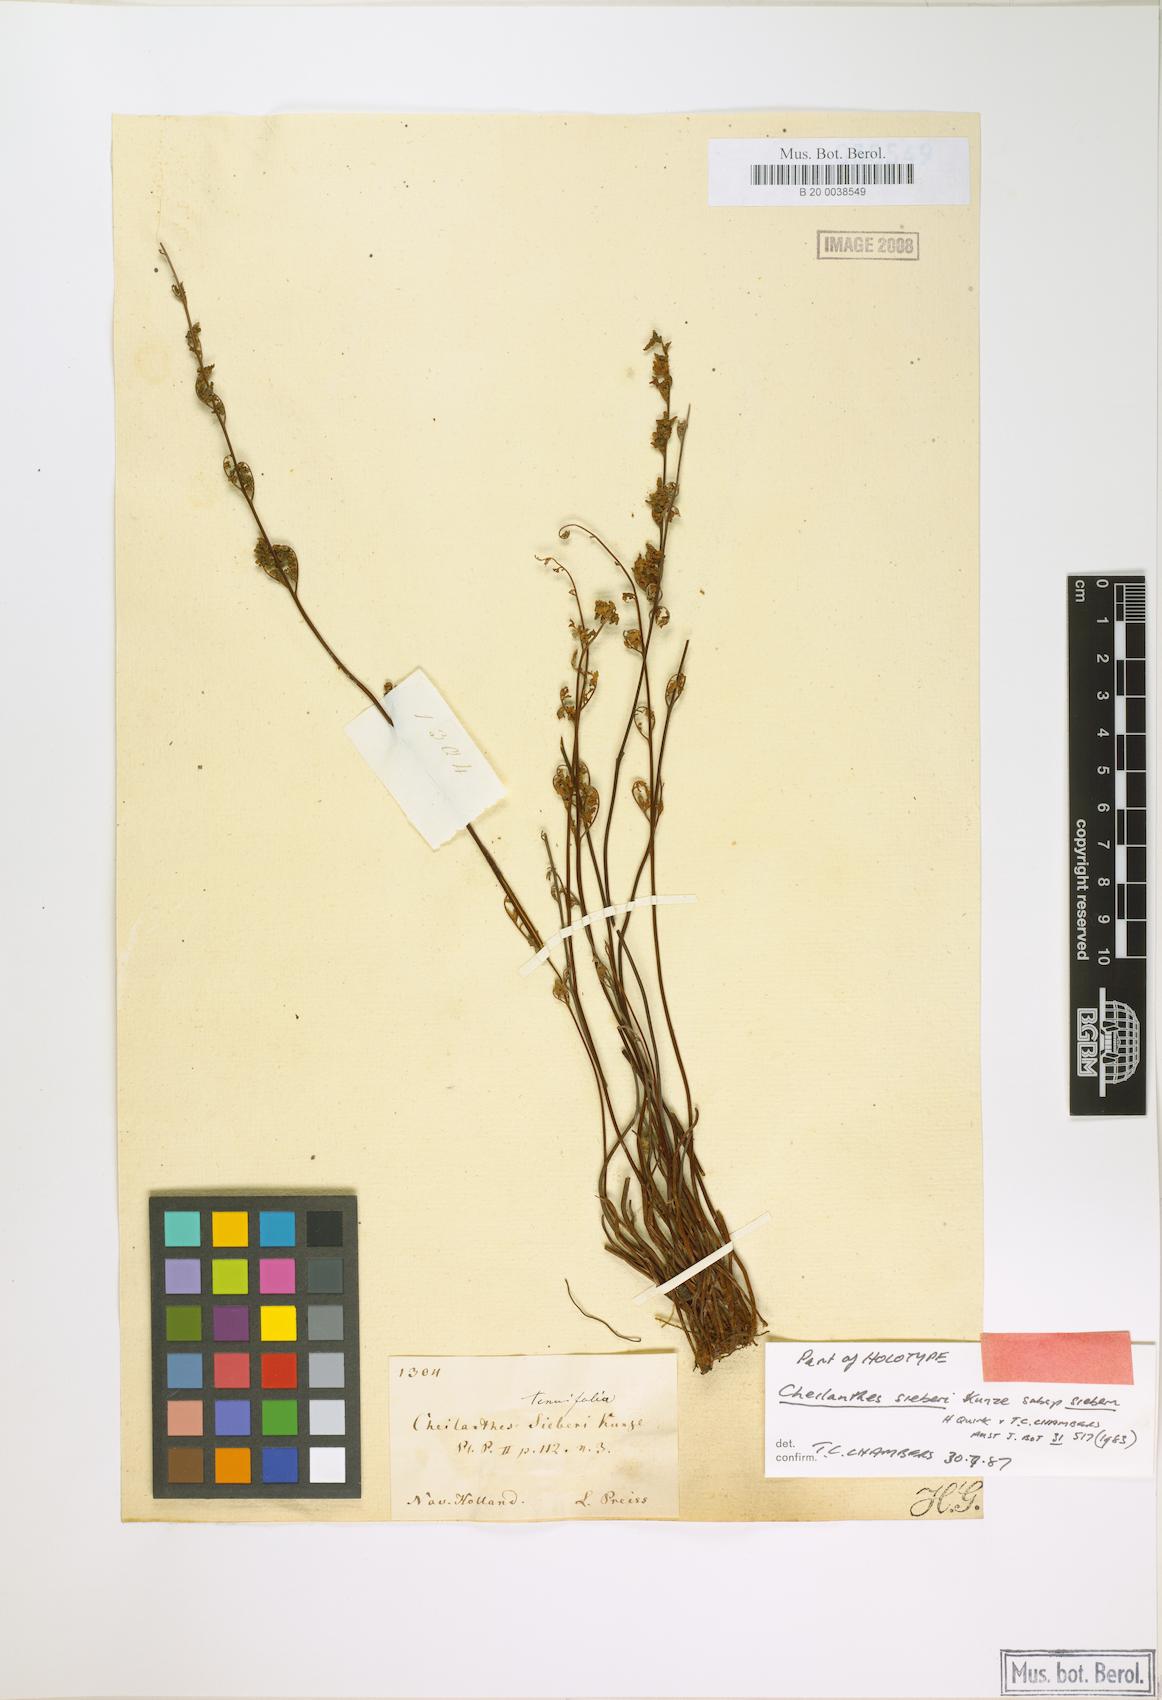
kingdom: Plantae
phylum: Tracheophyta
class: Polypodiopsida
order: Polypodiales
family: Pteridaceae
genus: Cheilanthes
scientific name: Cheilanthes sieberi
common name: Mulga fern
